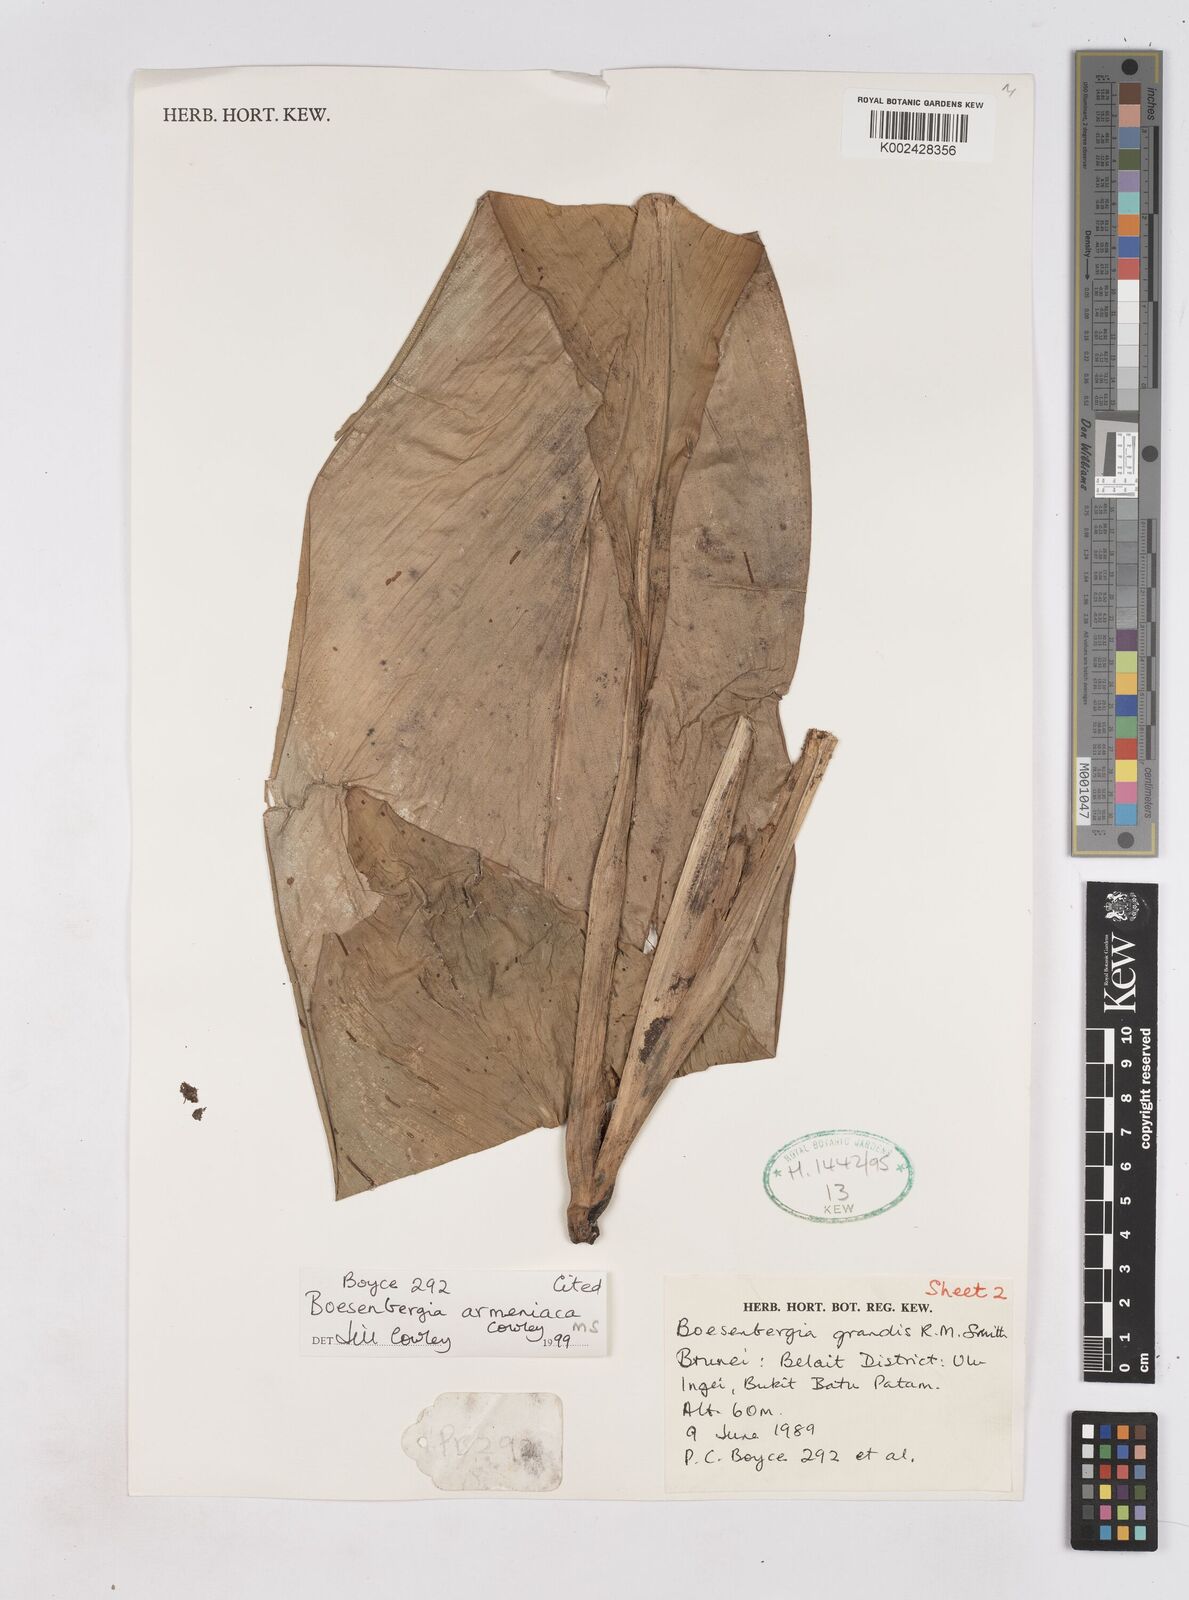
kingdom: Plantae
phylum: Tracheophyta
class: Liliopsida
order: Zingiberales
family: Zingiberaceae
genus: Boesenbergia
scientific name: Boesenbergia armeniaca
